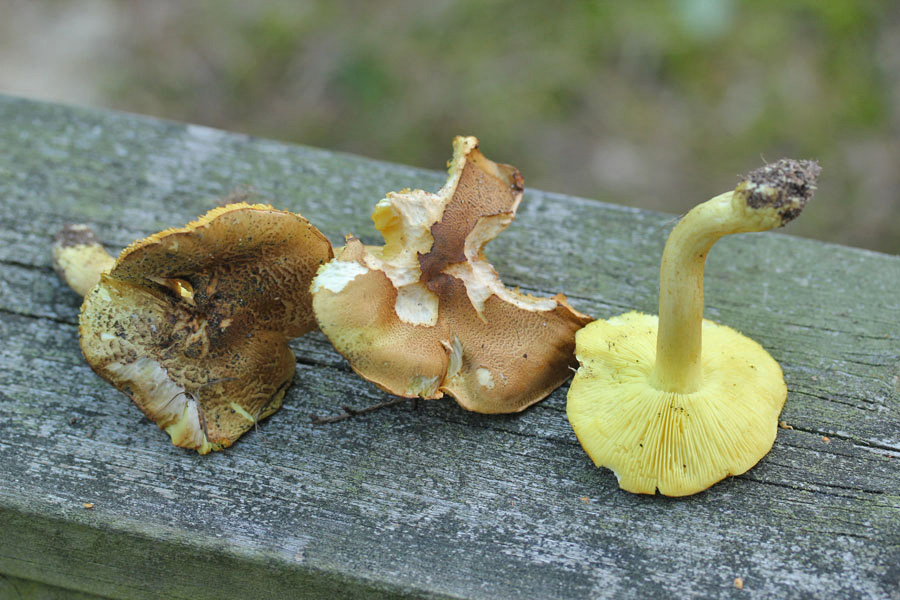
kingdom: Fungi
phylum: Basidiomycota
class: Agaricomycetes
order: Agaricales
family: Tricholomataceae
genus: Tricholoma
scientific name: Tricholoma frondosae
